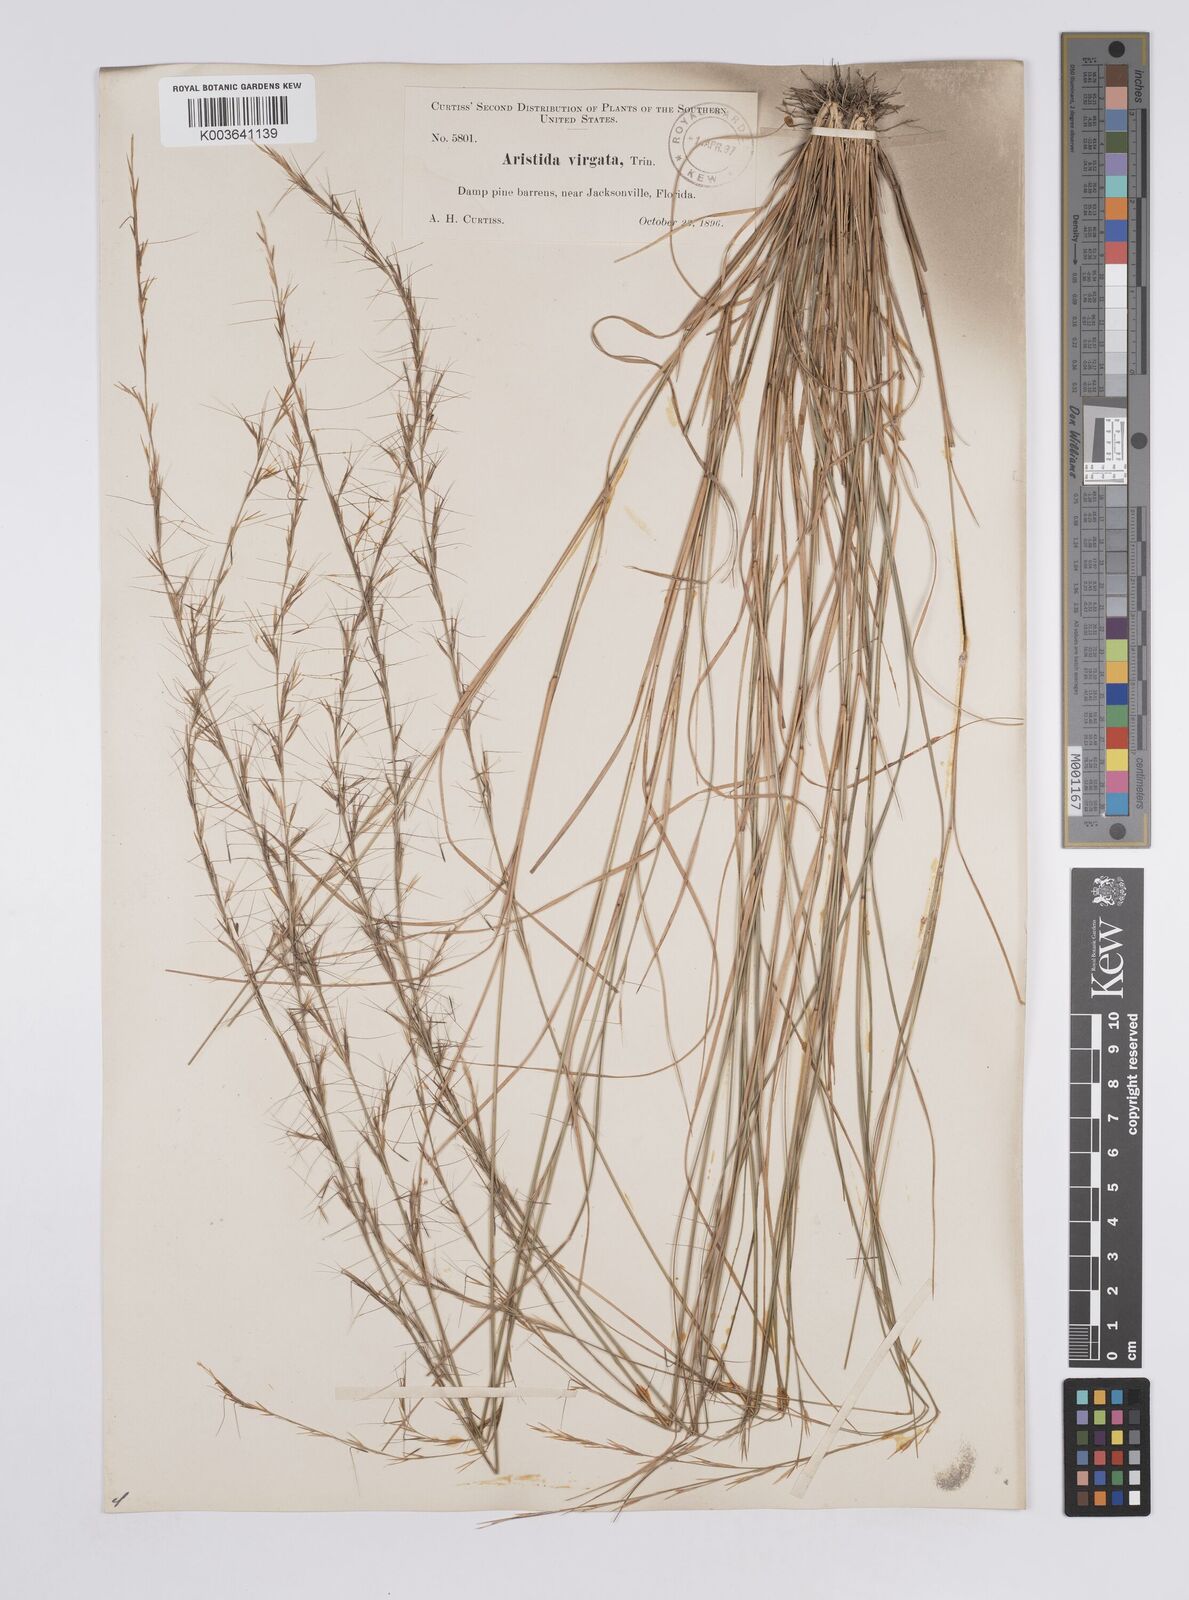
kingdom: Plantae
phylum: Tracheophyta
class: Liliopsida
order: Poales
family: Poaceae
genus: Aristida
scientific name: Aristida palustris
